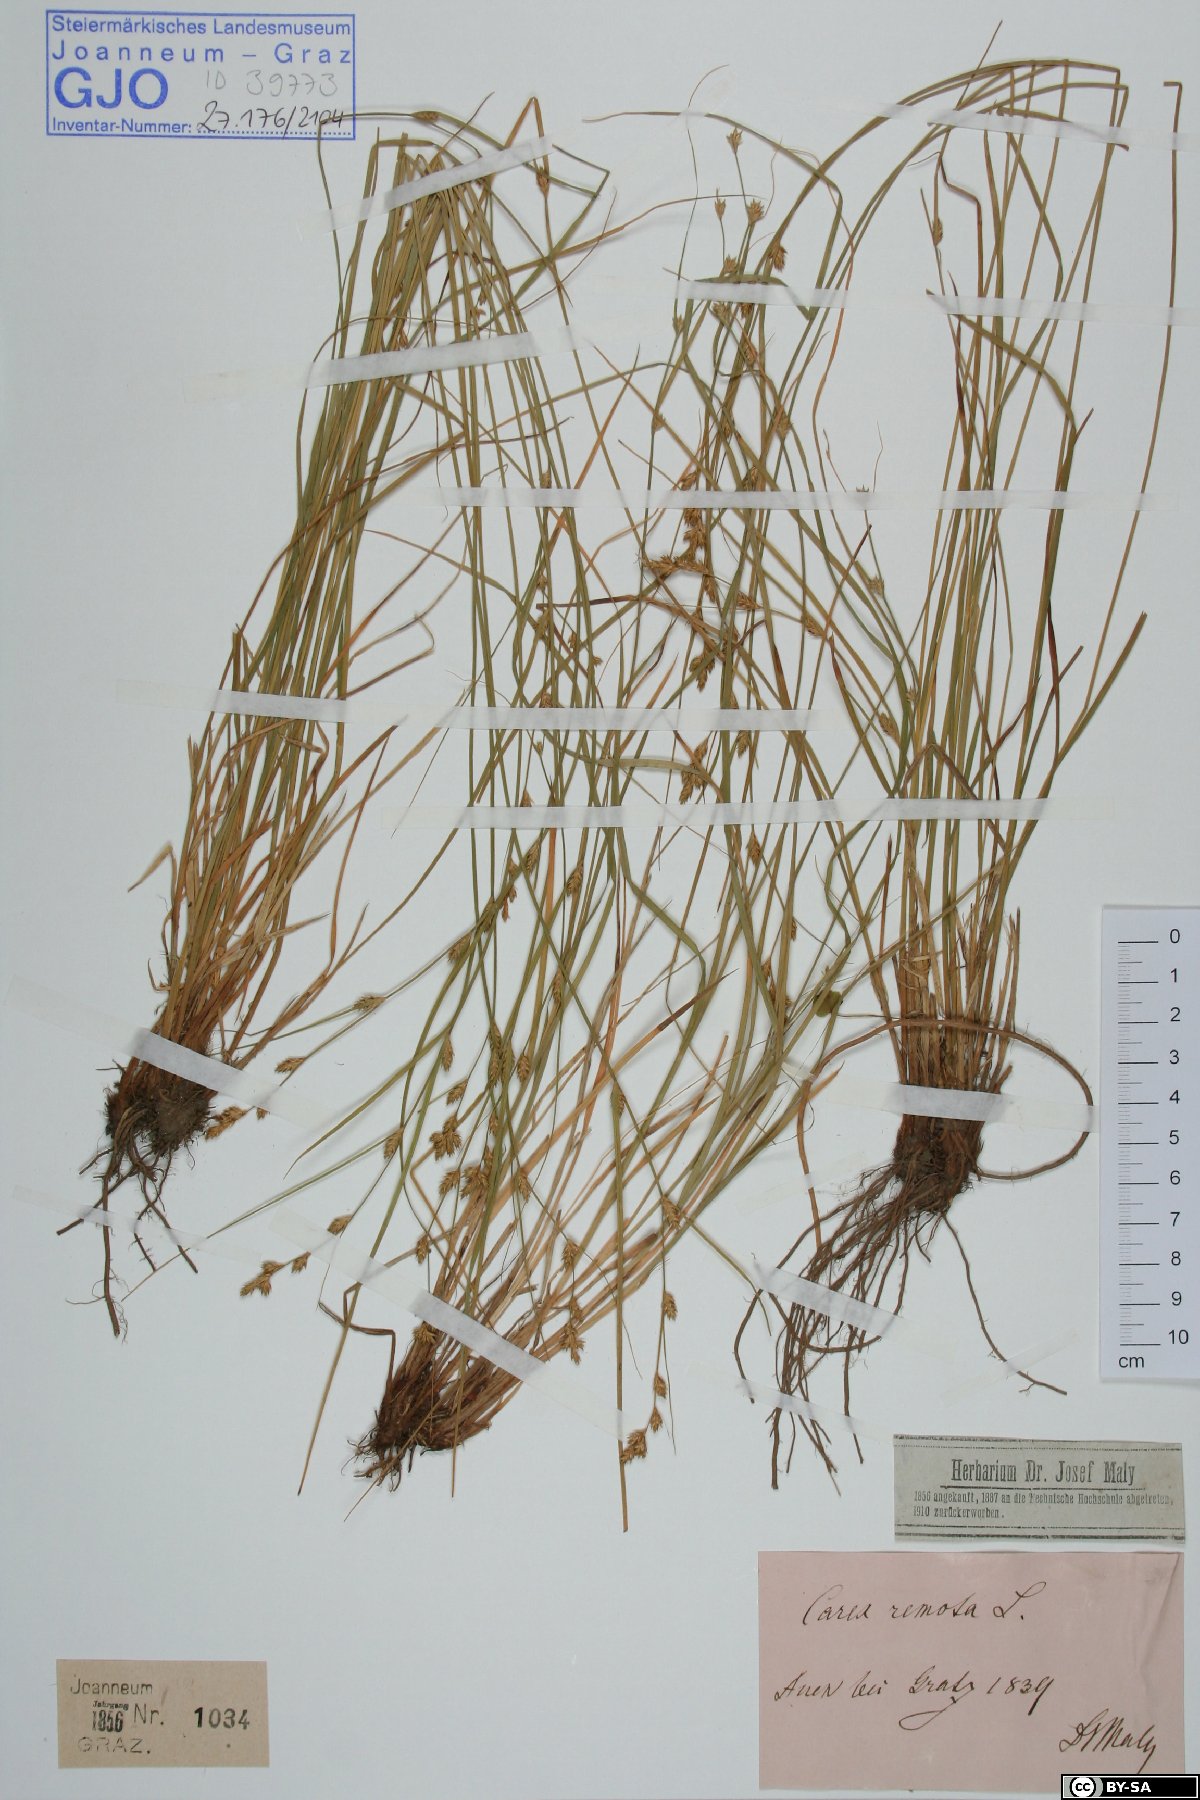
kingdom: Plantae
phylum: Tracheophyta
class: Liliopsida
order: Poales
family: Cyperaceae
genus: Carex
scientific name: Carex remota
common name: Remote sedge
